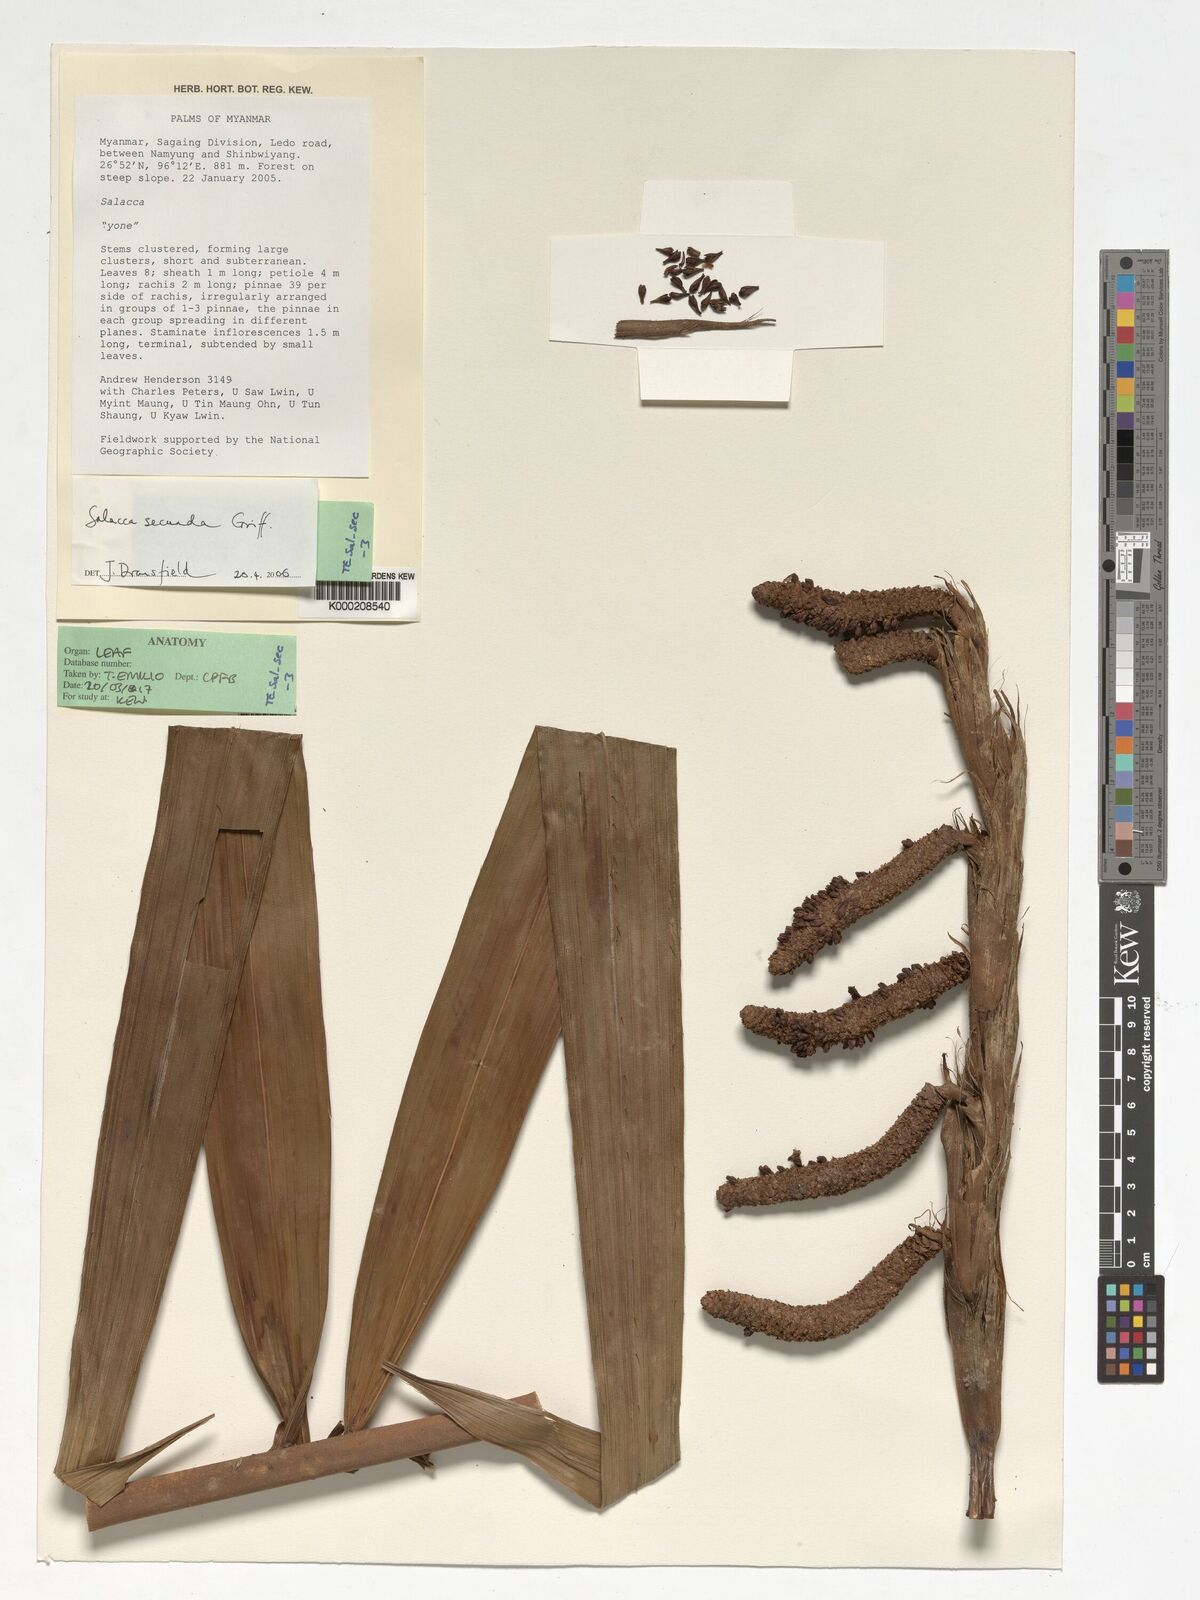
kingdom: Plantae
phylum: Tracheophyta
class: Liliopsida
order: Arecales
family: Arecaceae
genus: Salacca
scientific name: Salacca secunda
